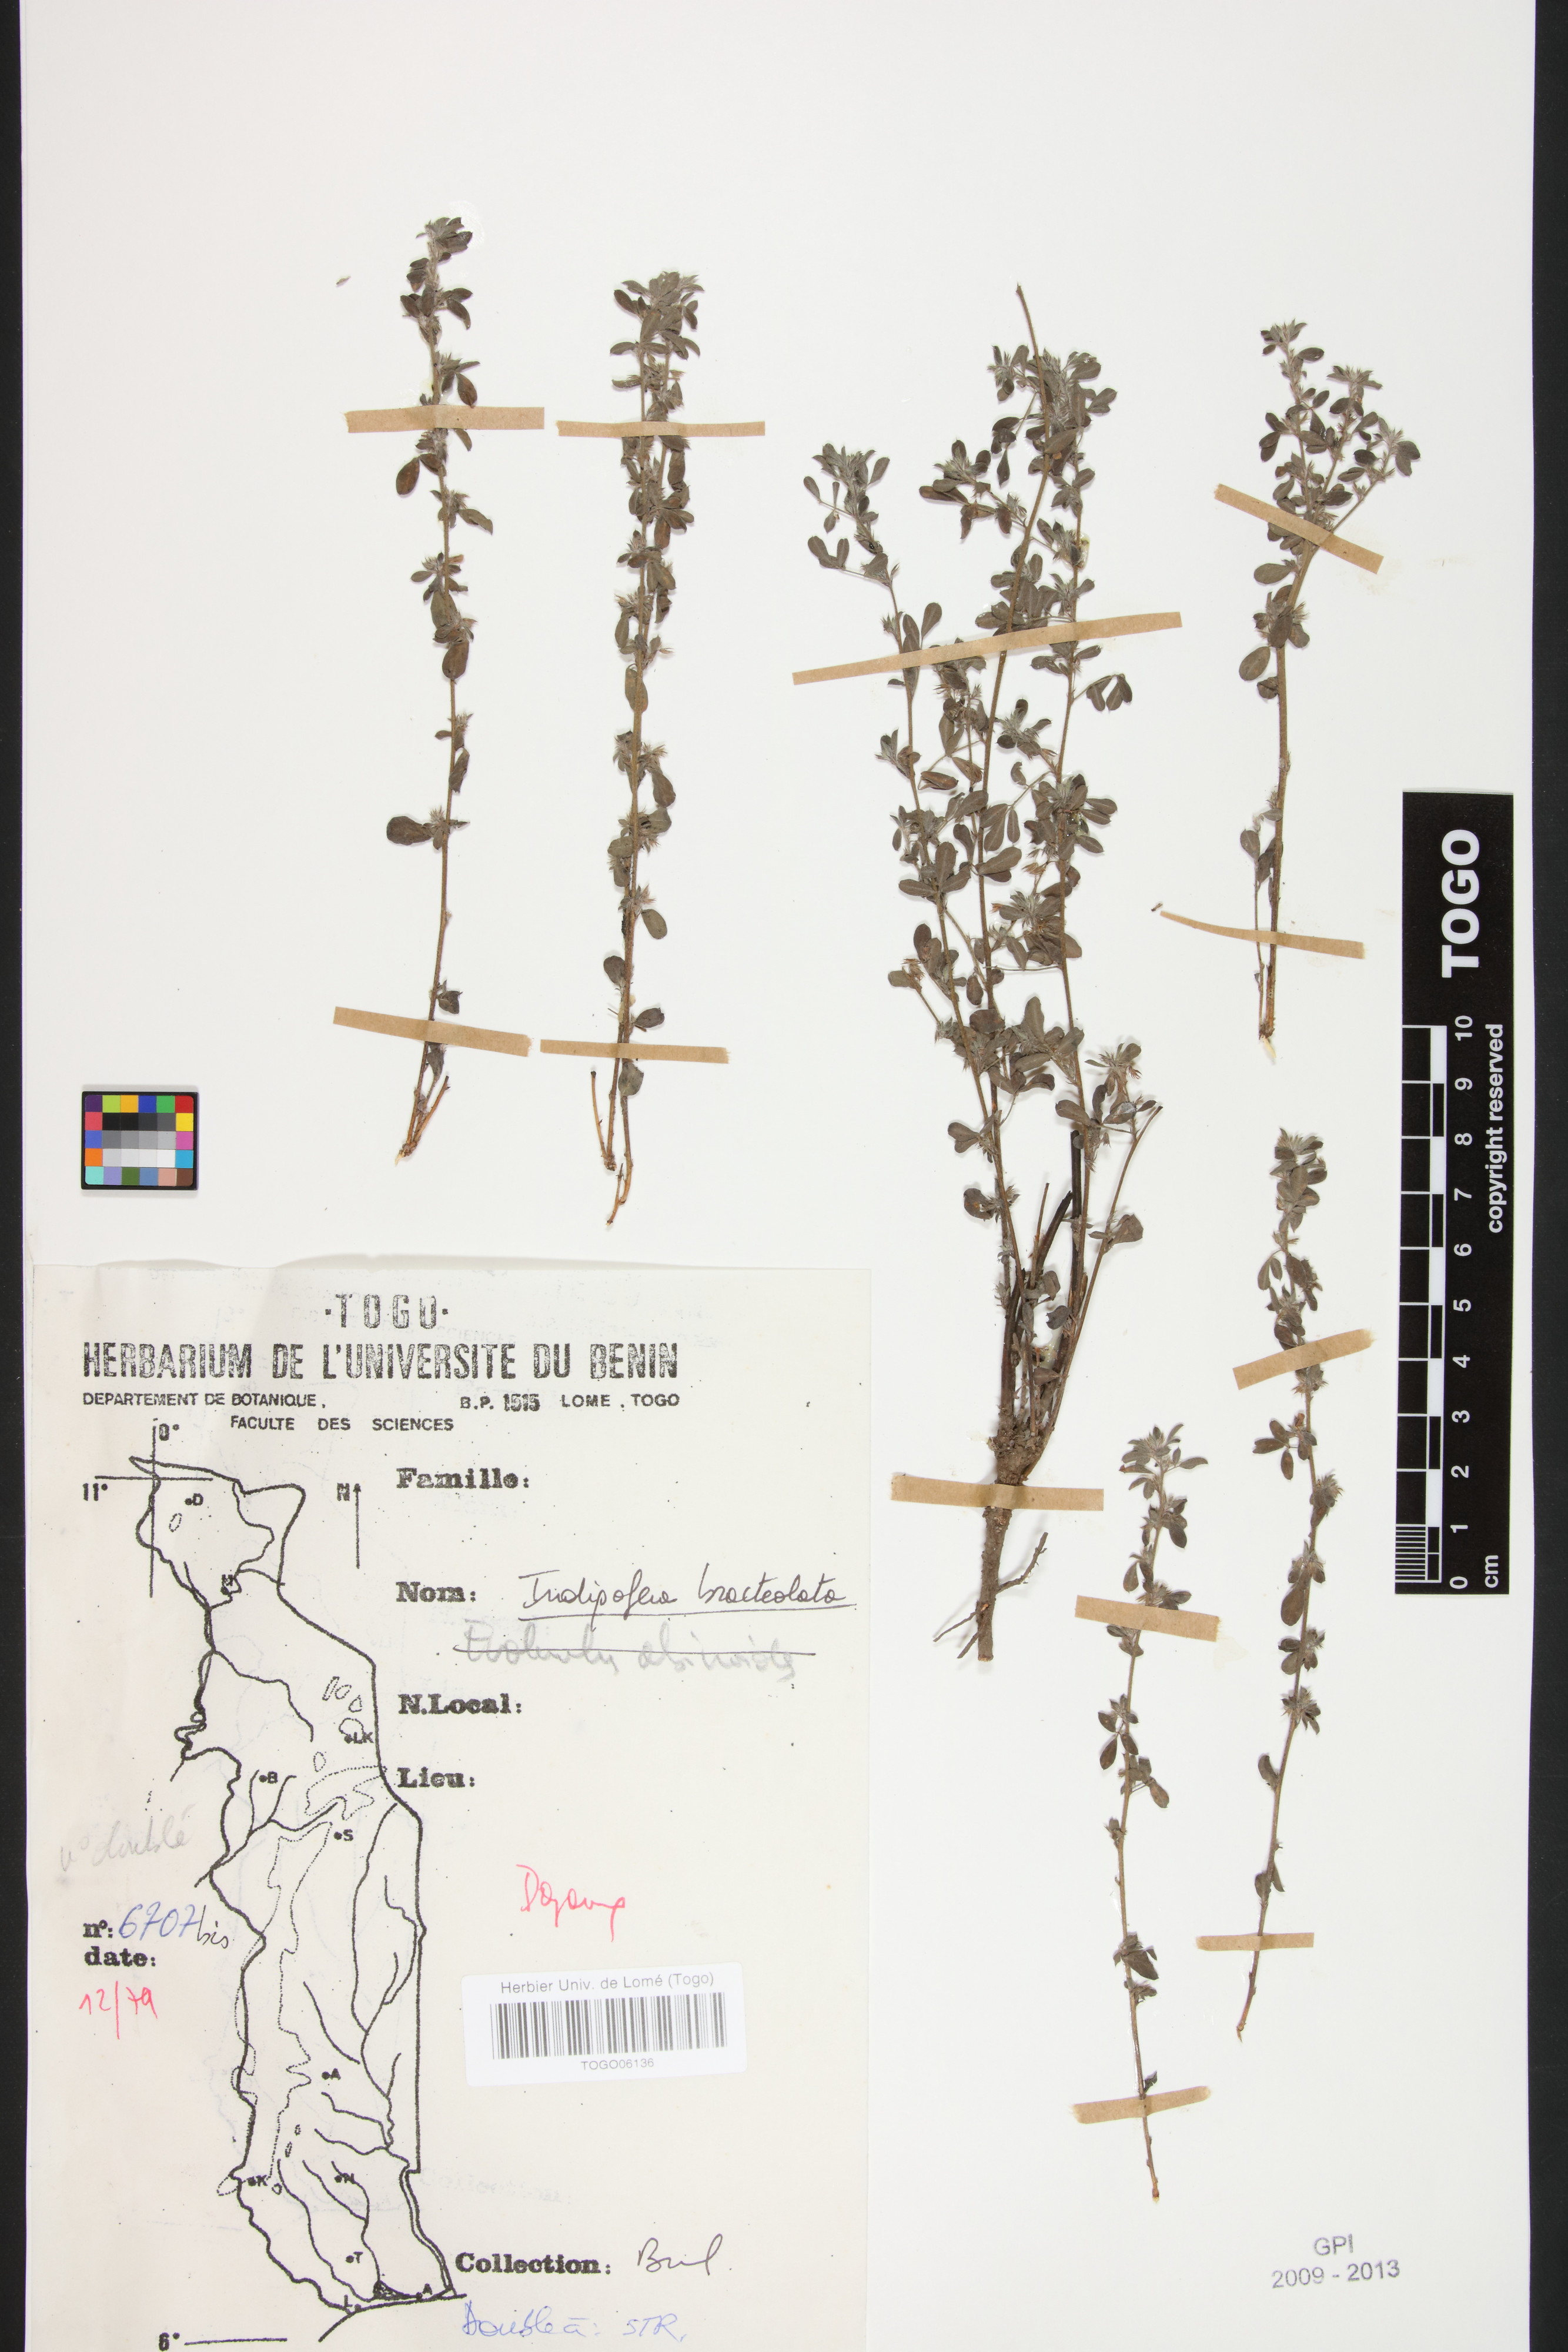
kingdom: Plantae
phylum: Tracheophyta
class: Magnoliopsida
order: Fabales
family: Fabaceae
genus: Indigofera
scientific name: Indigofera bracteolata
